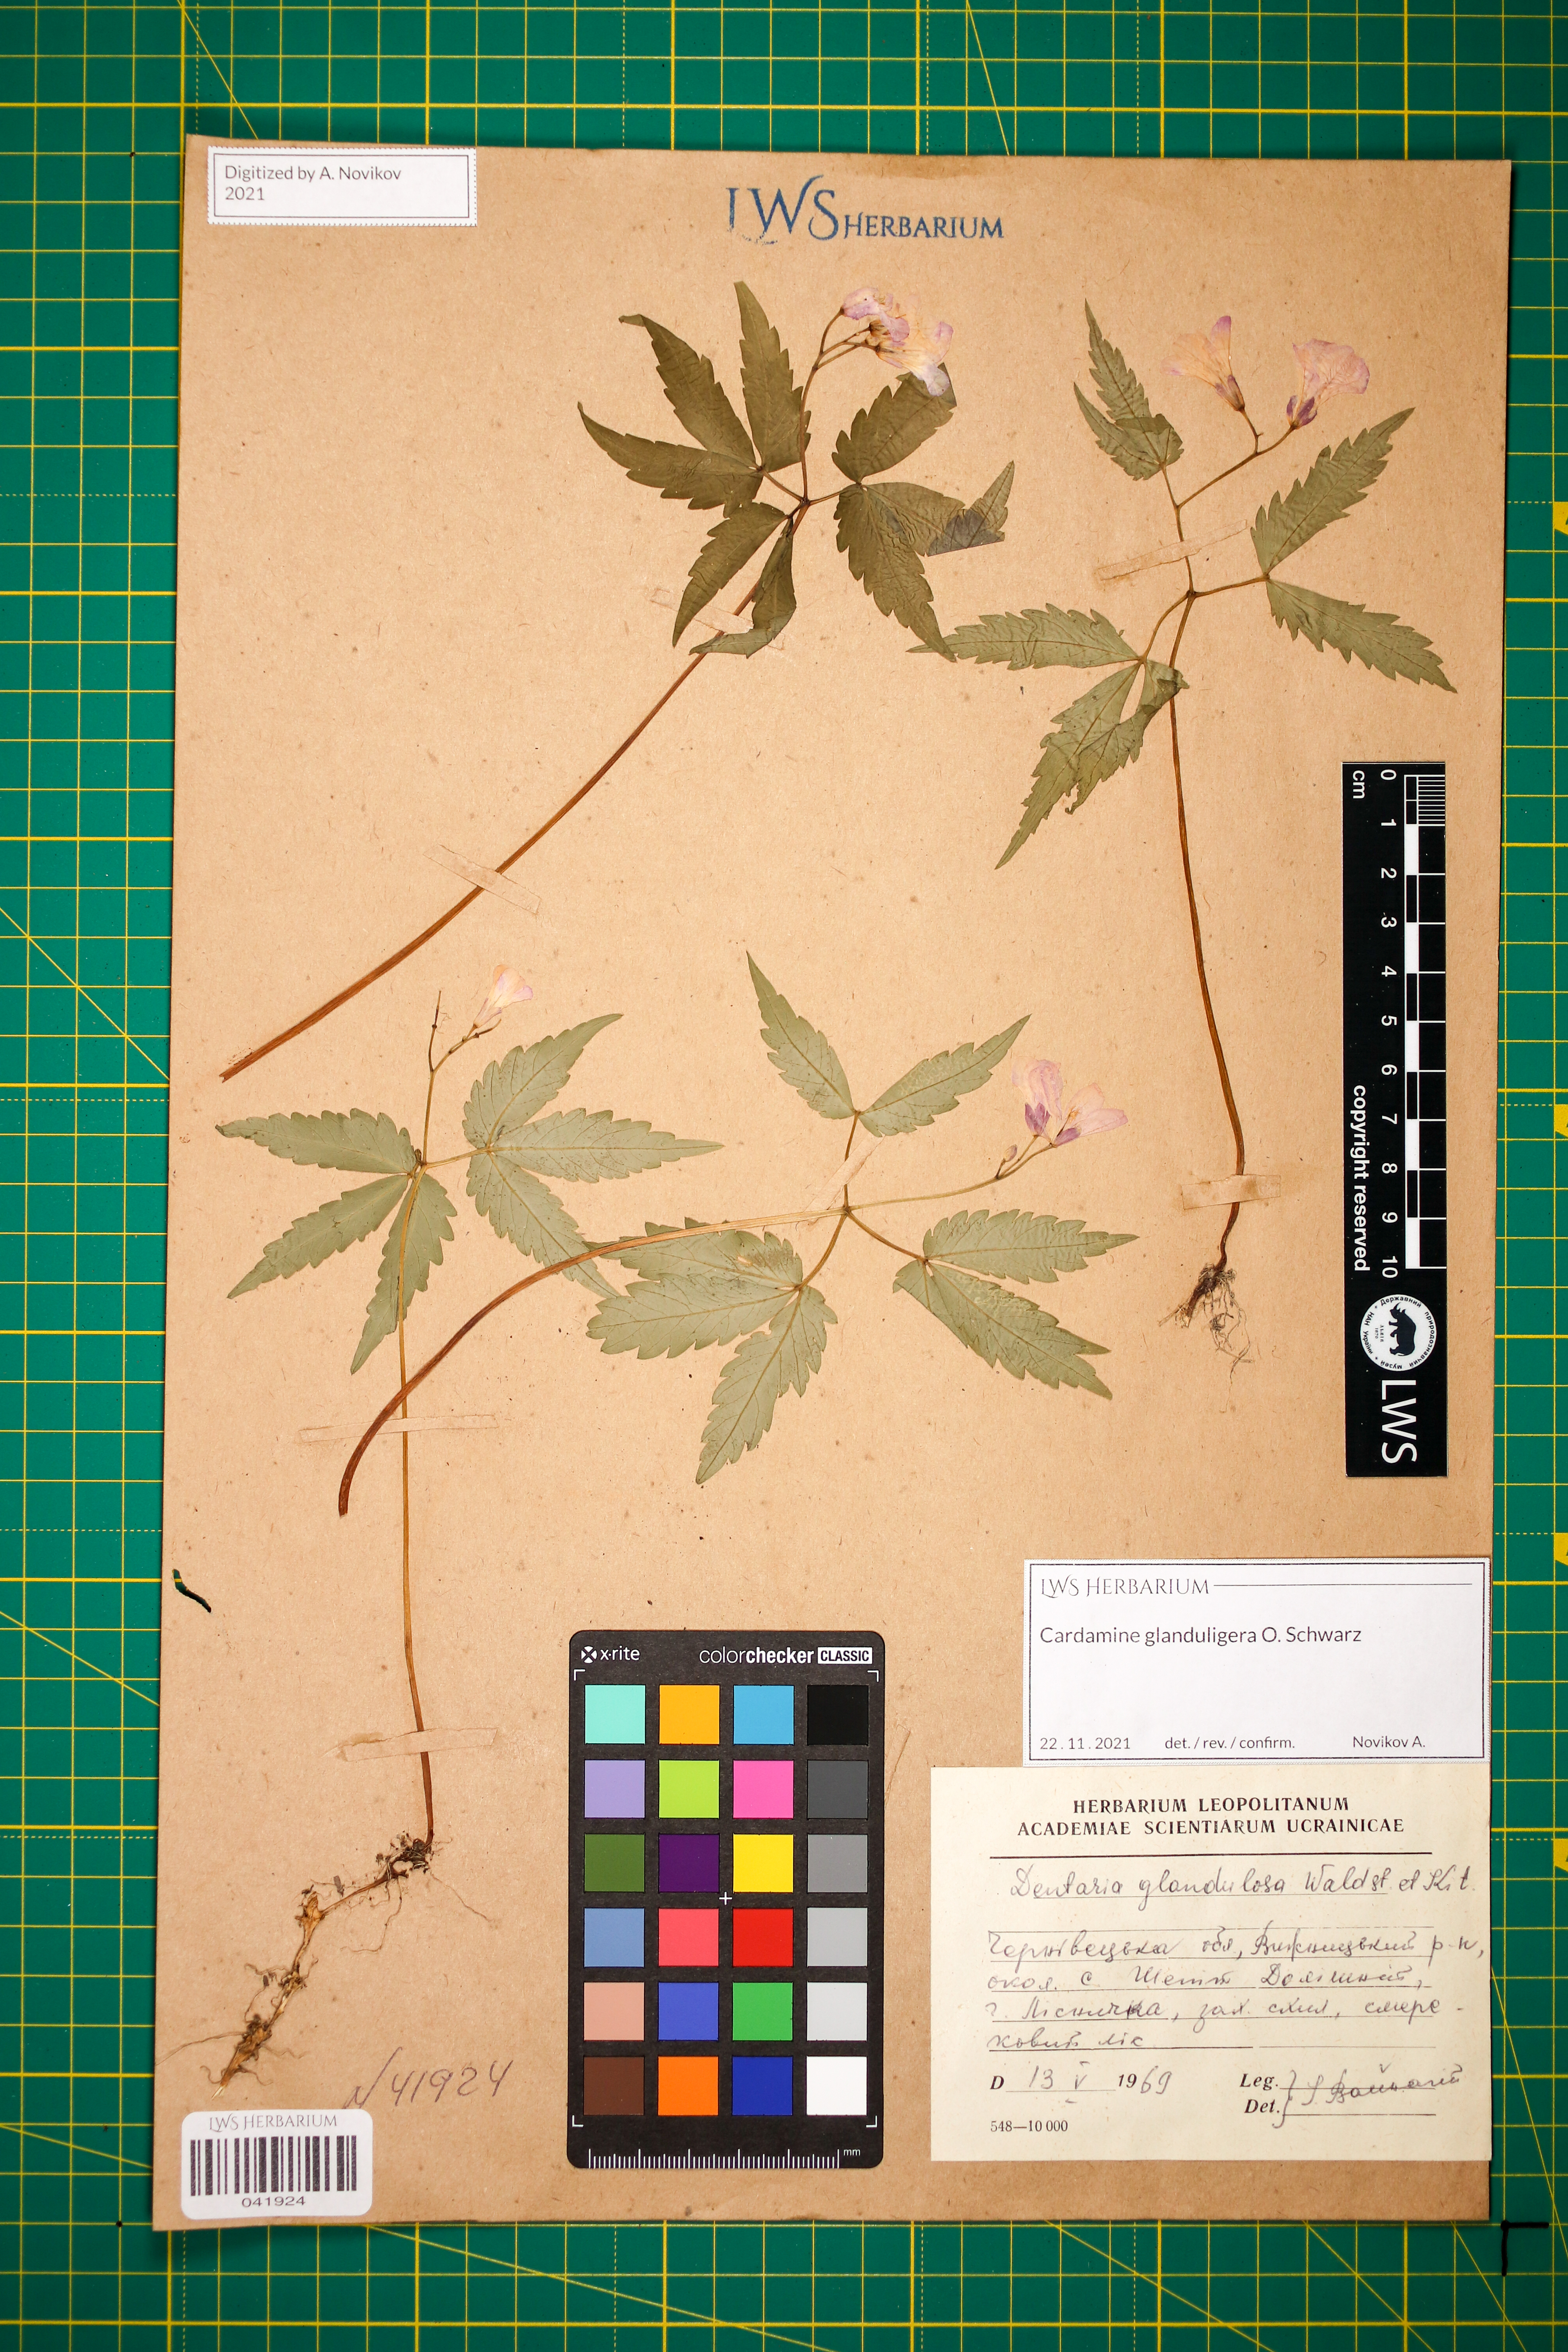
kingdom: Plantae
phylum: Tracheophyta
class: Magnoliopsida
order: Brassicales
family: Brassicaceae
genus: Cardamine
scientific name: Cardamine glanduligera
